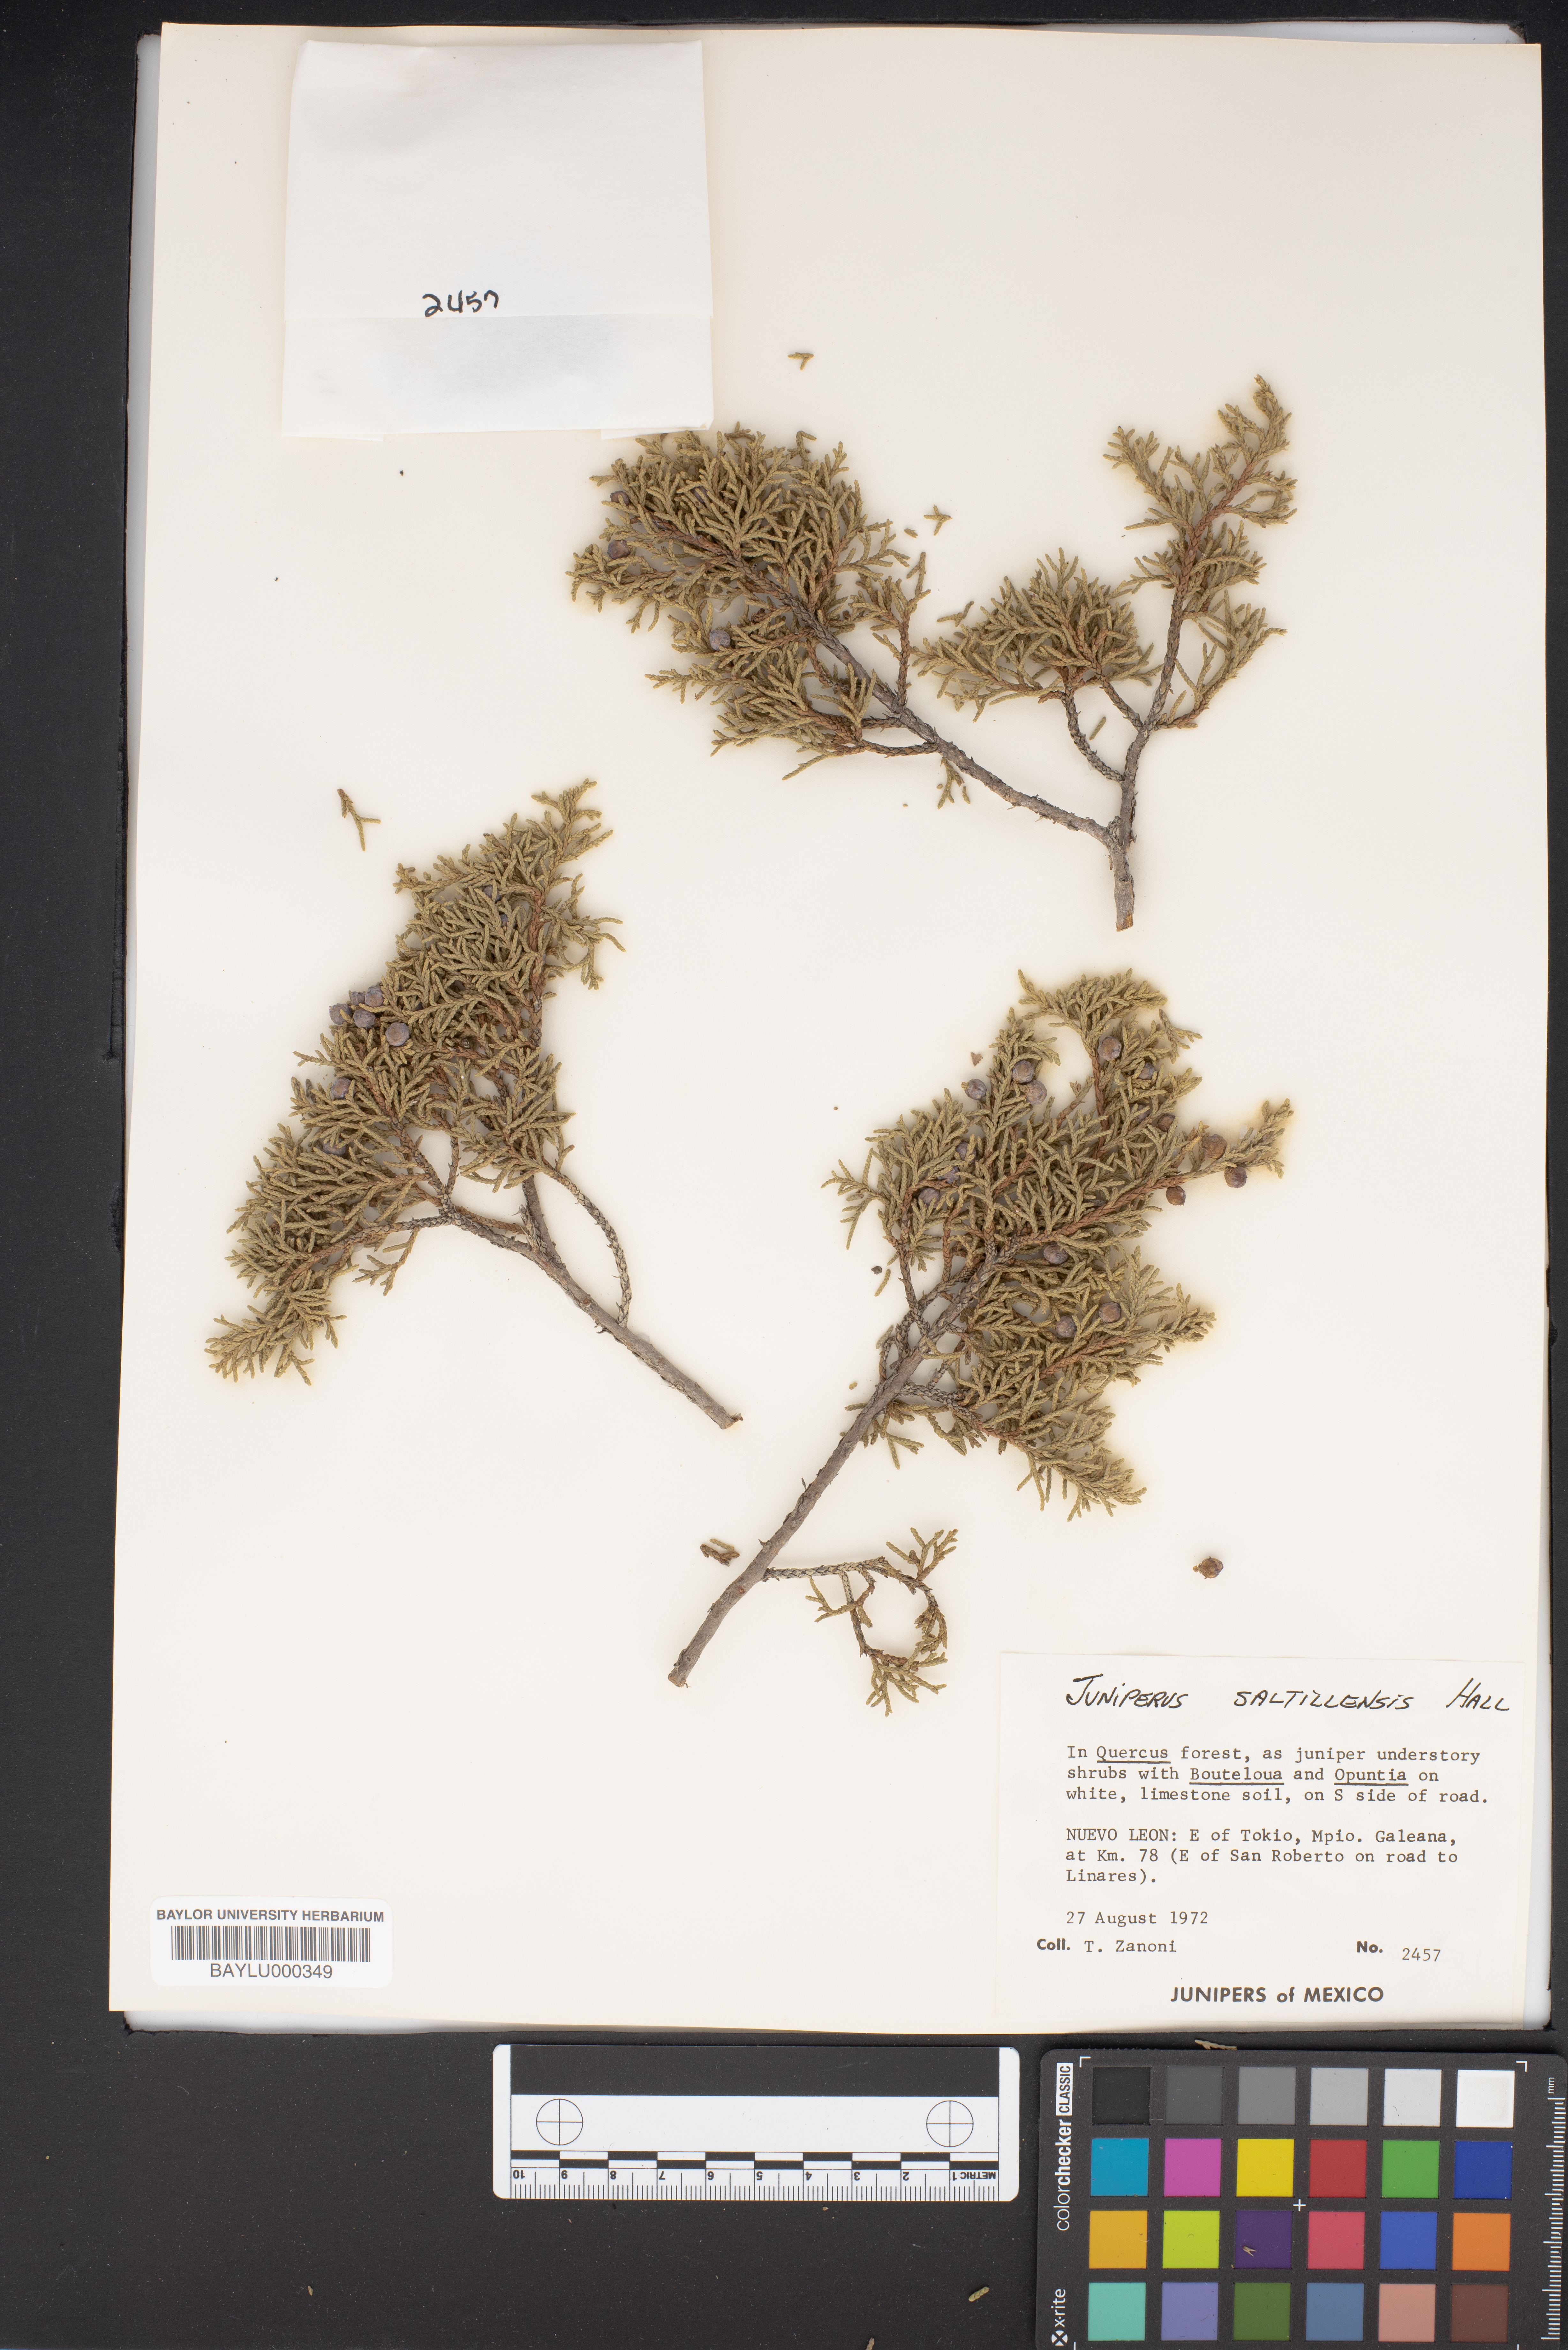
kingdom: Plantae
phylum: Tracheophyta
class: Pinopsida
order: Pinales
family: Cupressaceae
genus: Juniperus
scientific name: Juniperus saltillensis
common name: Saltillo juniper
